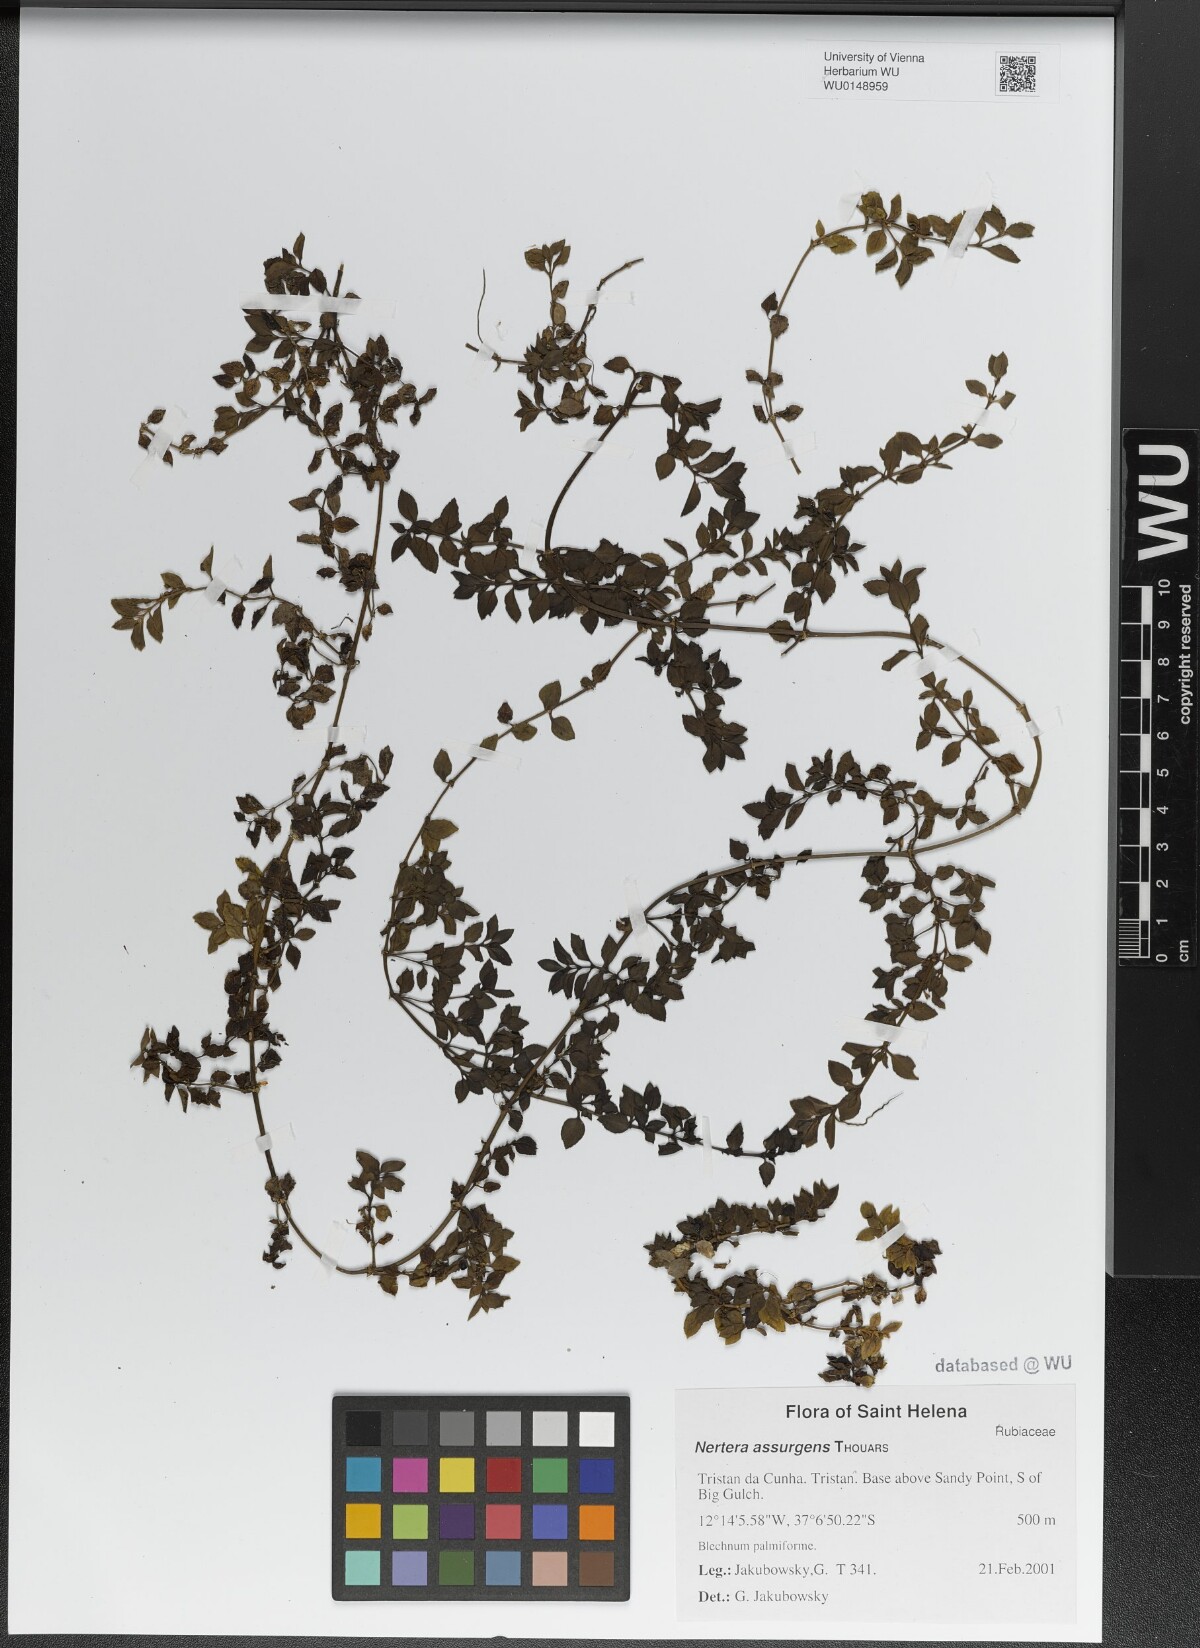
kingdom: Plantae
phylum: Tracheophyta
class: Magnoliopsida
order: Gentianales
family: Rubiaceae
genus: Nertera
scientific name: Nertera granadensis
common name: Beadplant
